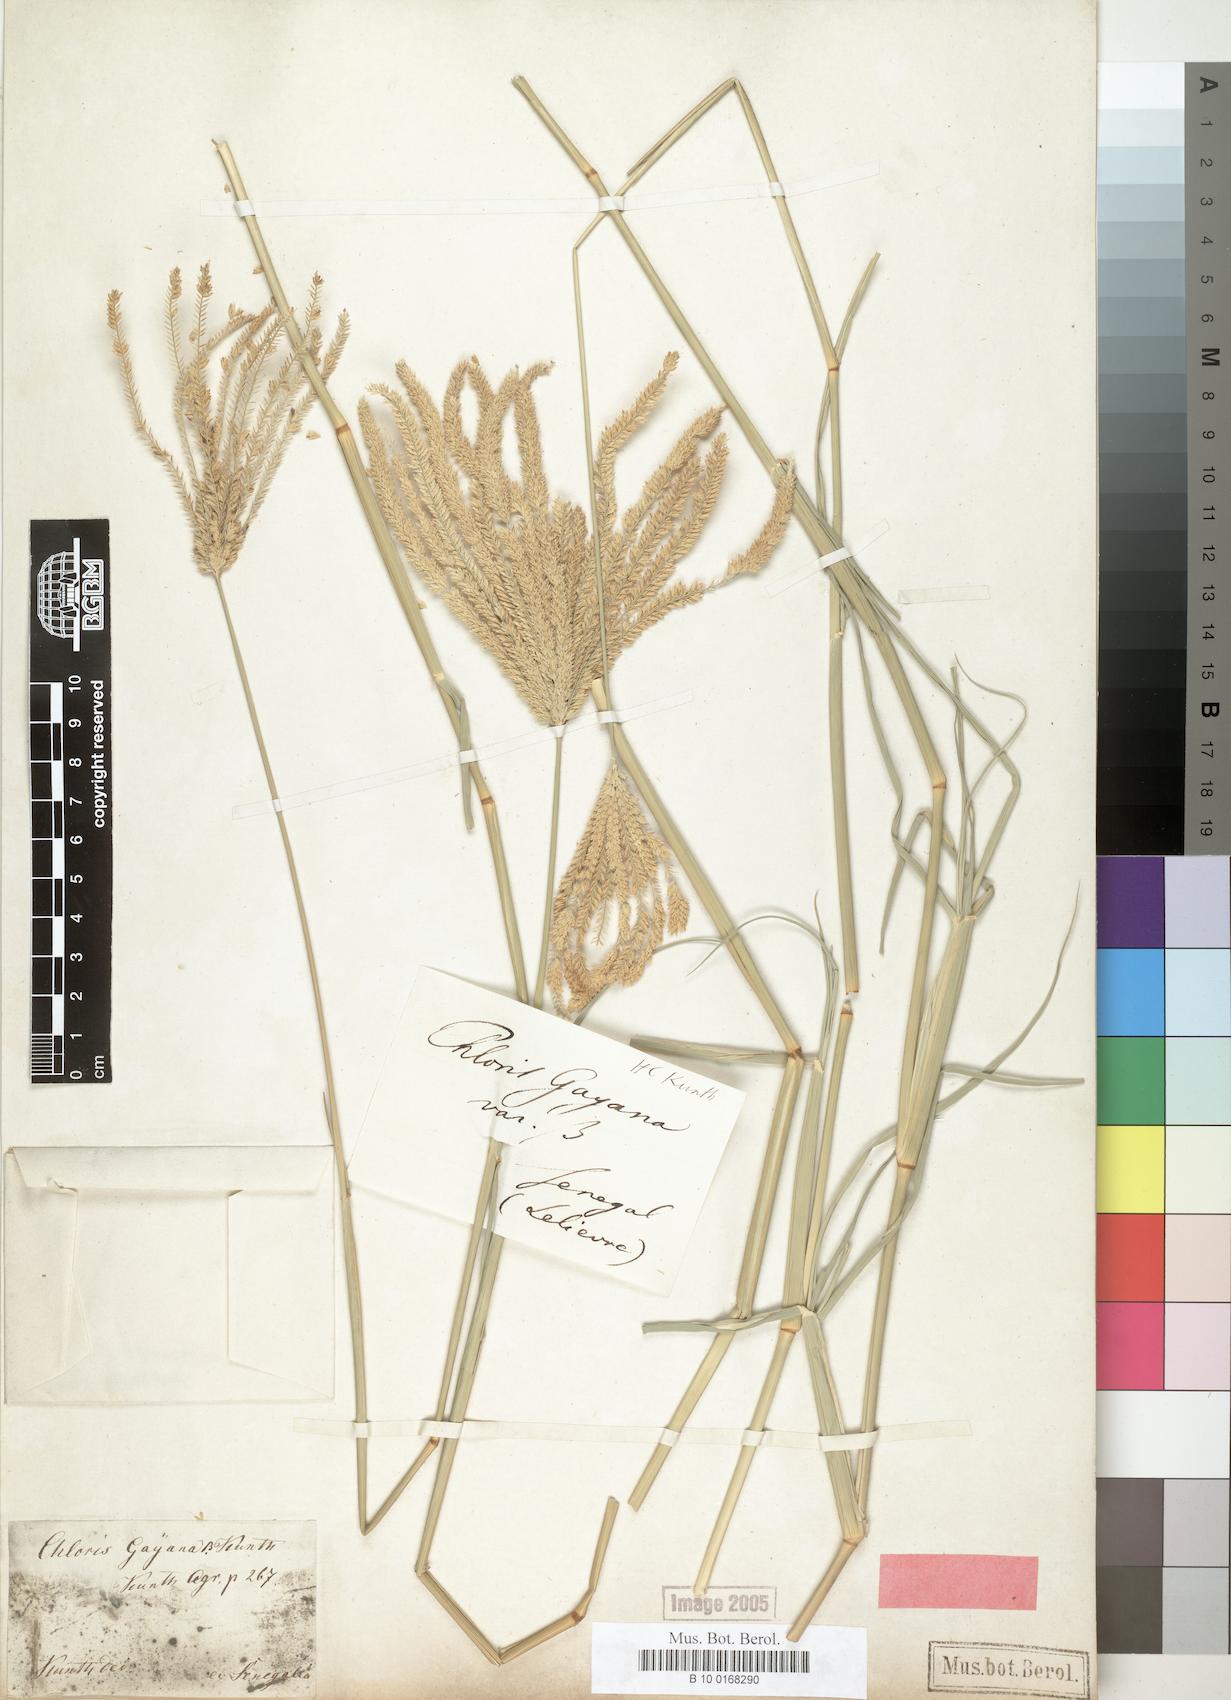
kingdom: Plantae
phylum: Tracheophyta
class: Liliopsida
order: Poales
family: Poaceae
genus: Chloris
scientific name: Chloris gayana
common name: Rhodes grass
